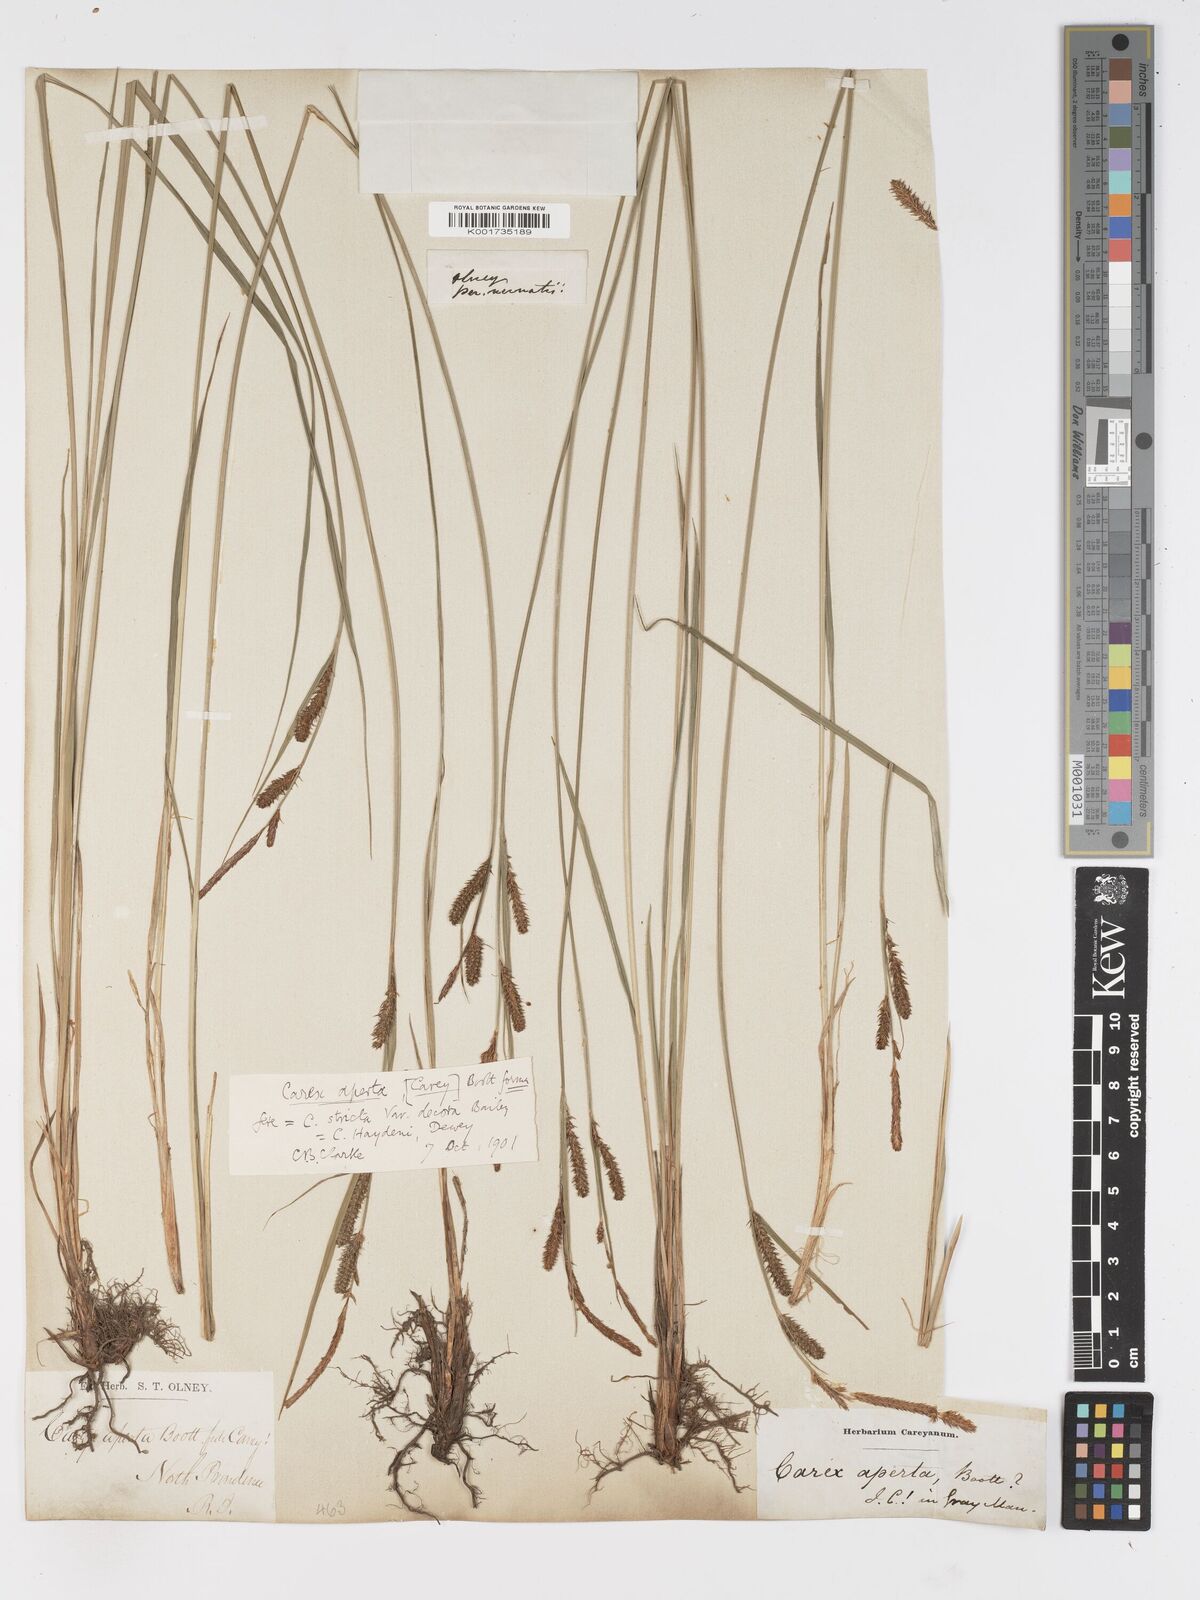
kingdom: Plantae
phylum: Tracheophyta
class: Liliopsida
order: Poales
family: Cyperaceae
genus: Carex
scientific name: Carex haydenii
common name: Hayden's sedge
